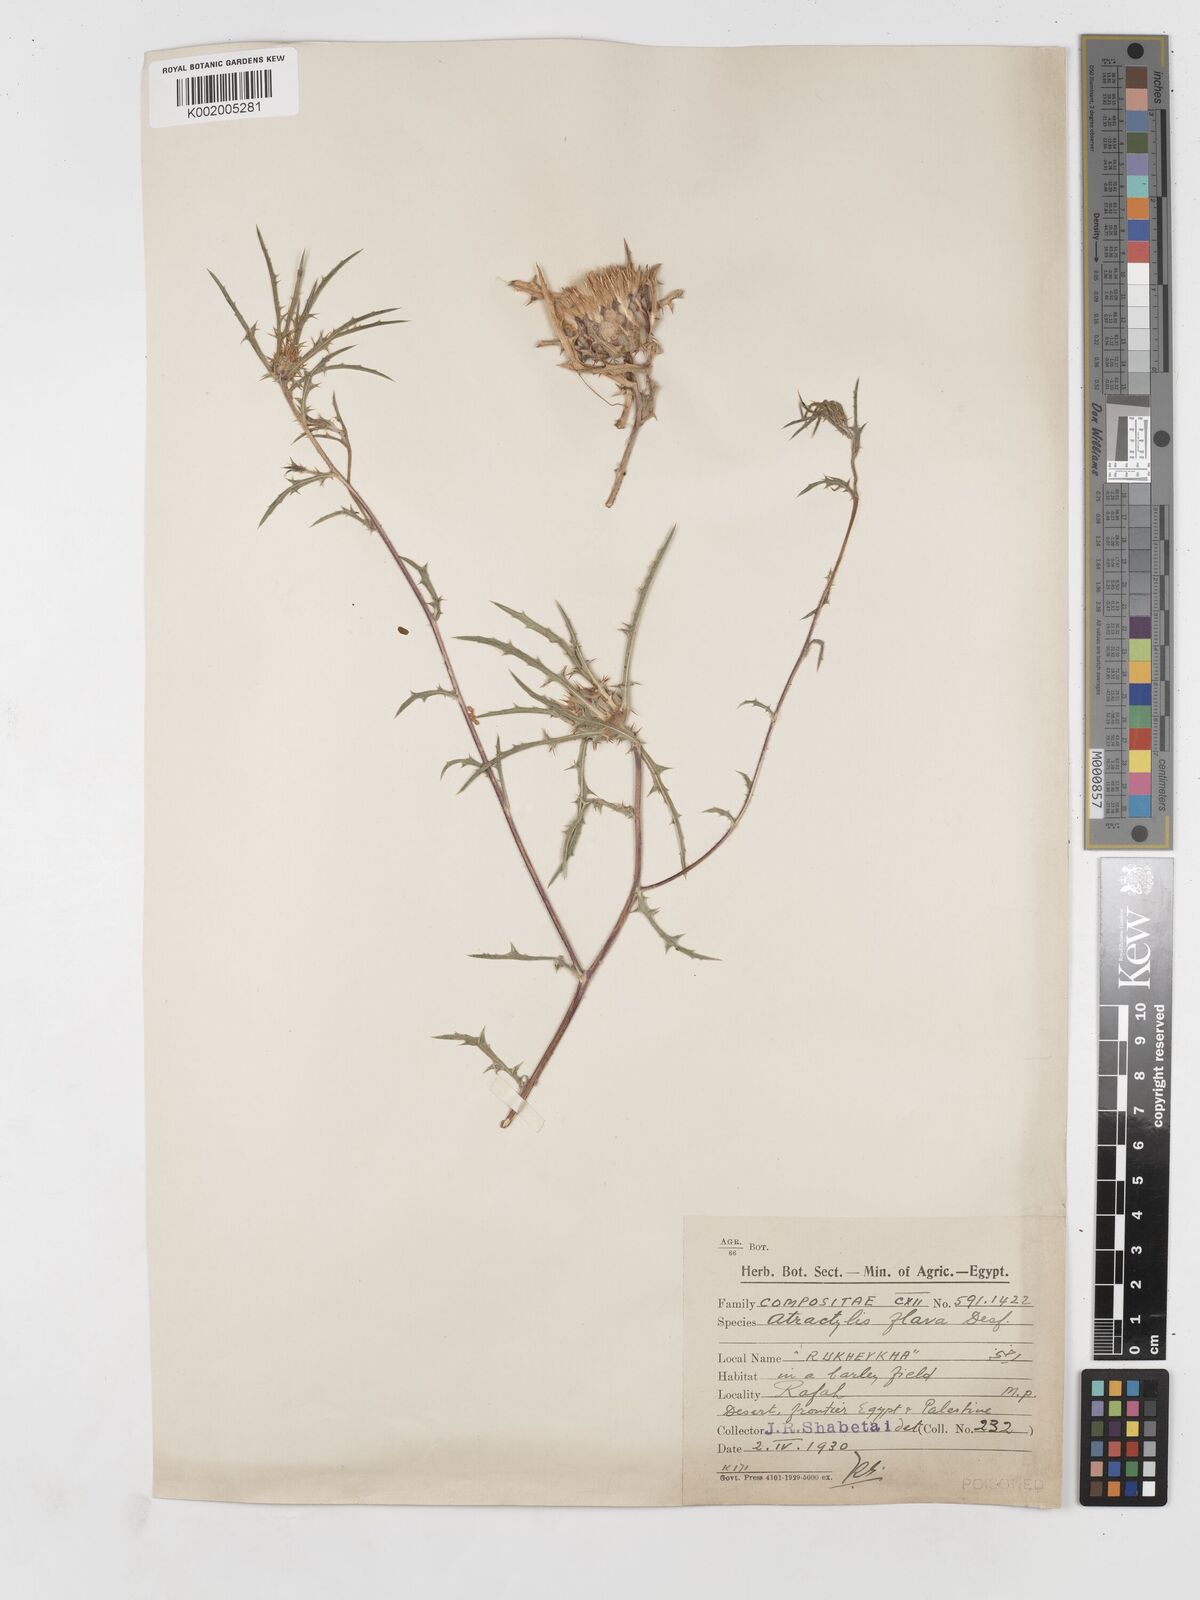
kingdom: Plantae
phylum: Tracheophyta
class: Magnoliopsida
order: Asterales
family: Asteraceae
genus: Atractylis
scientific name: Atractylis carduus
